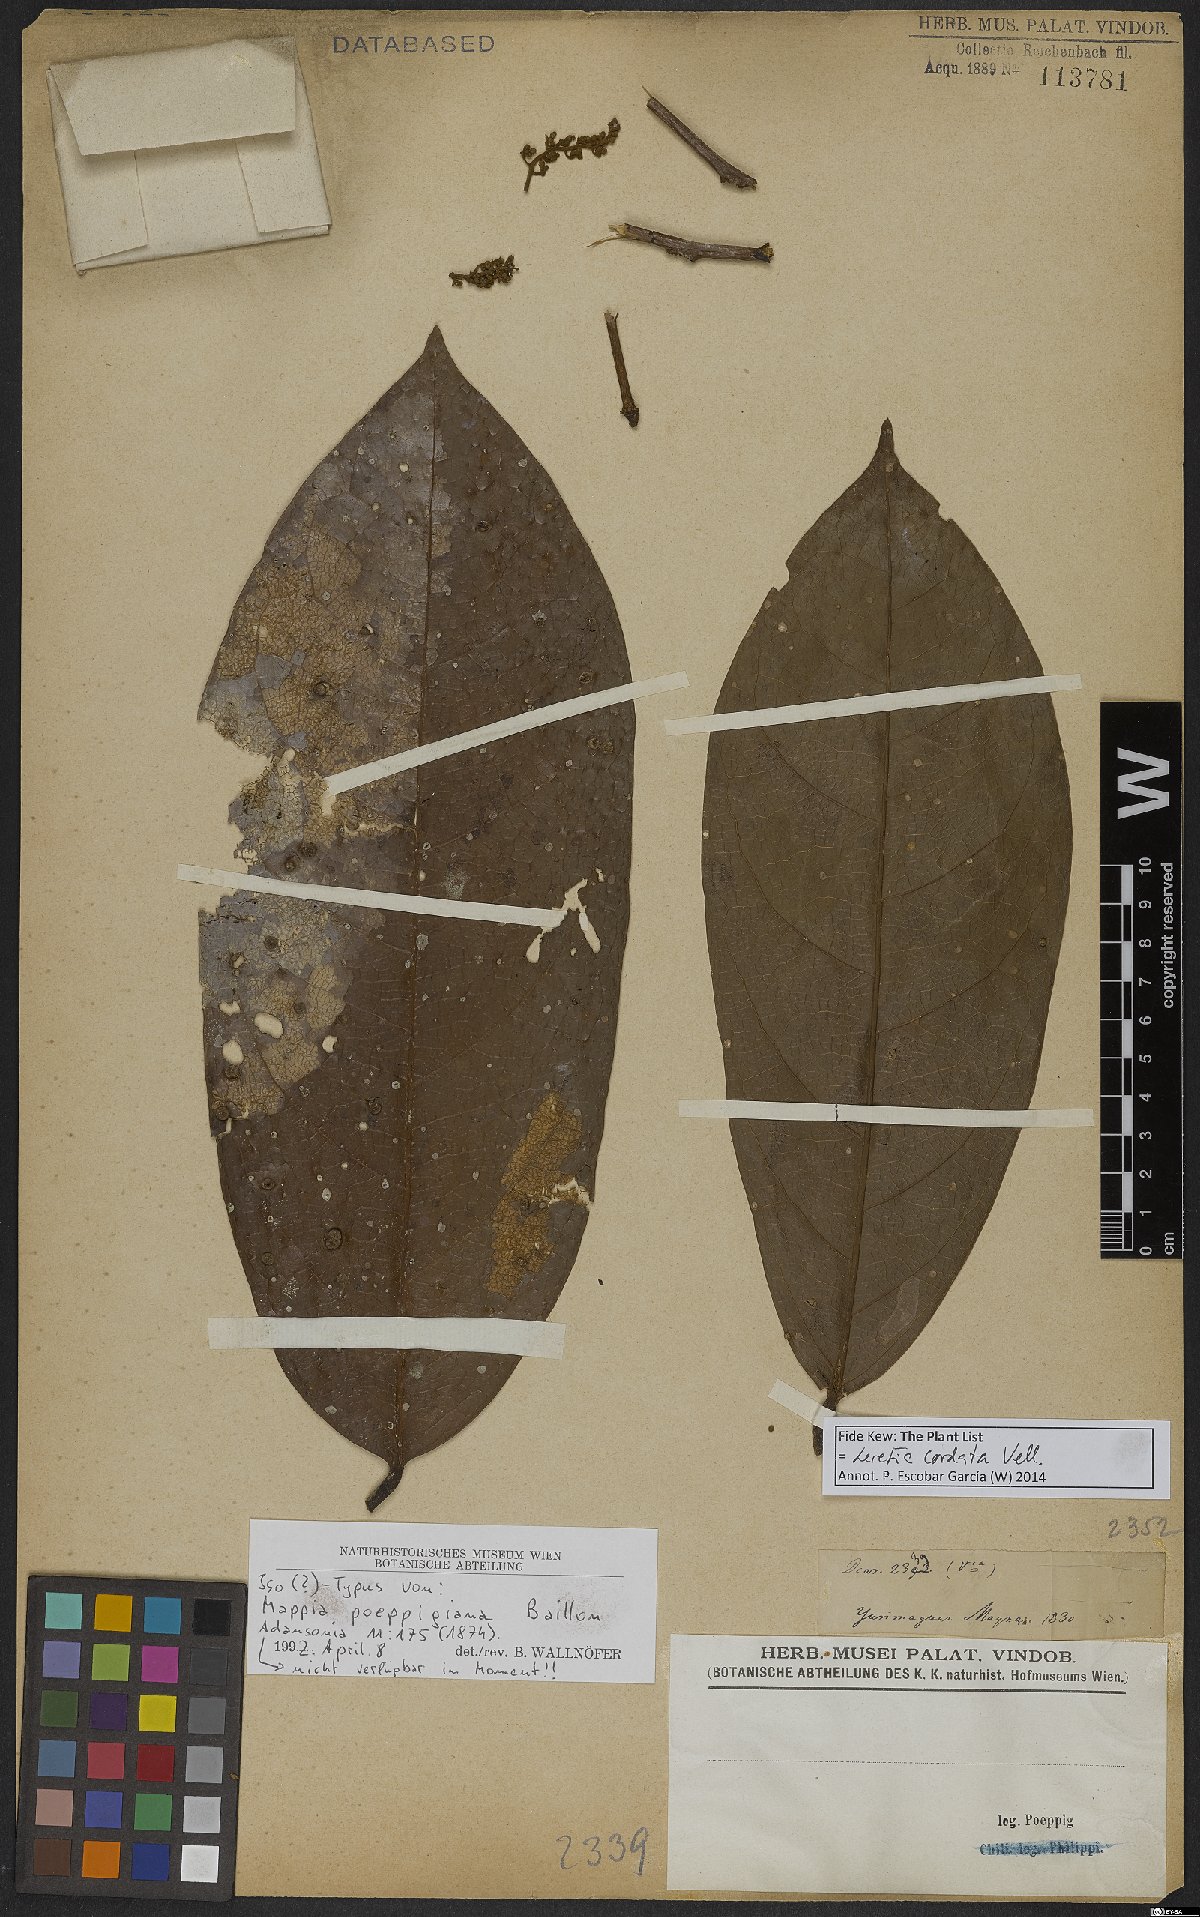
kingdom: Plantae
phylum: Tracheophyta
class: Magnoliopsida
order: Icacinales
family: Icacinaceae
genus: Leretia
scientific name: Leretia cordata
